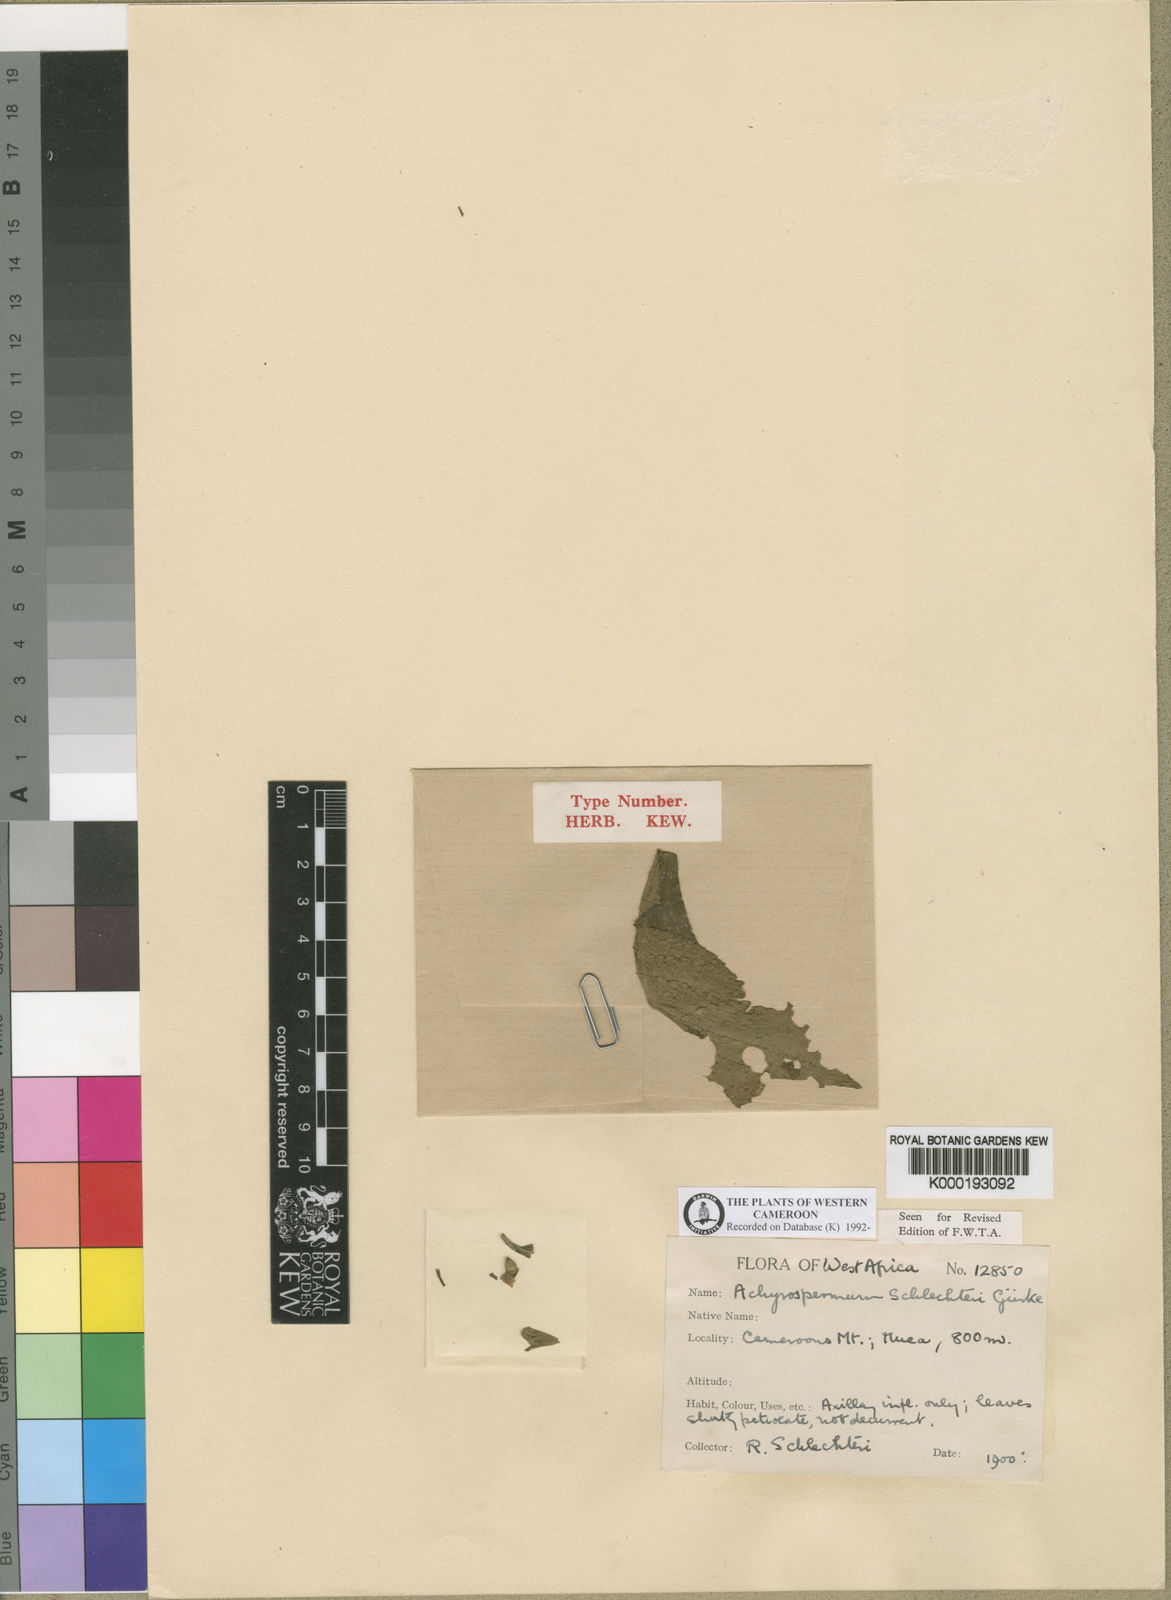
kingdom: Plantae
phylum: Tracheophyta
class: Magnoliopsida
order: Lamiales
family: Lamiaceae
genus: Stachys
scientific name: Stachys
